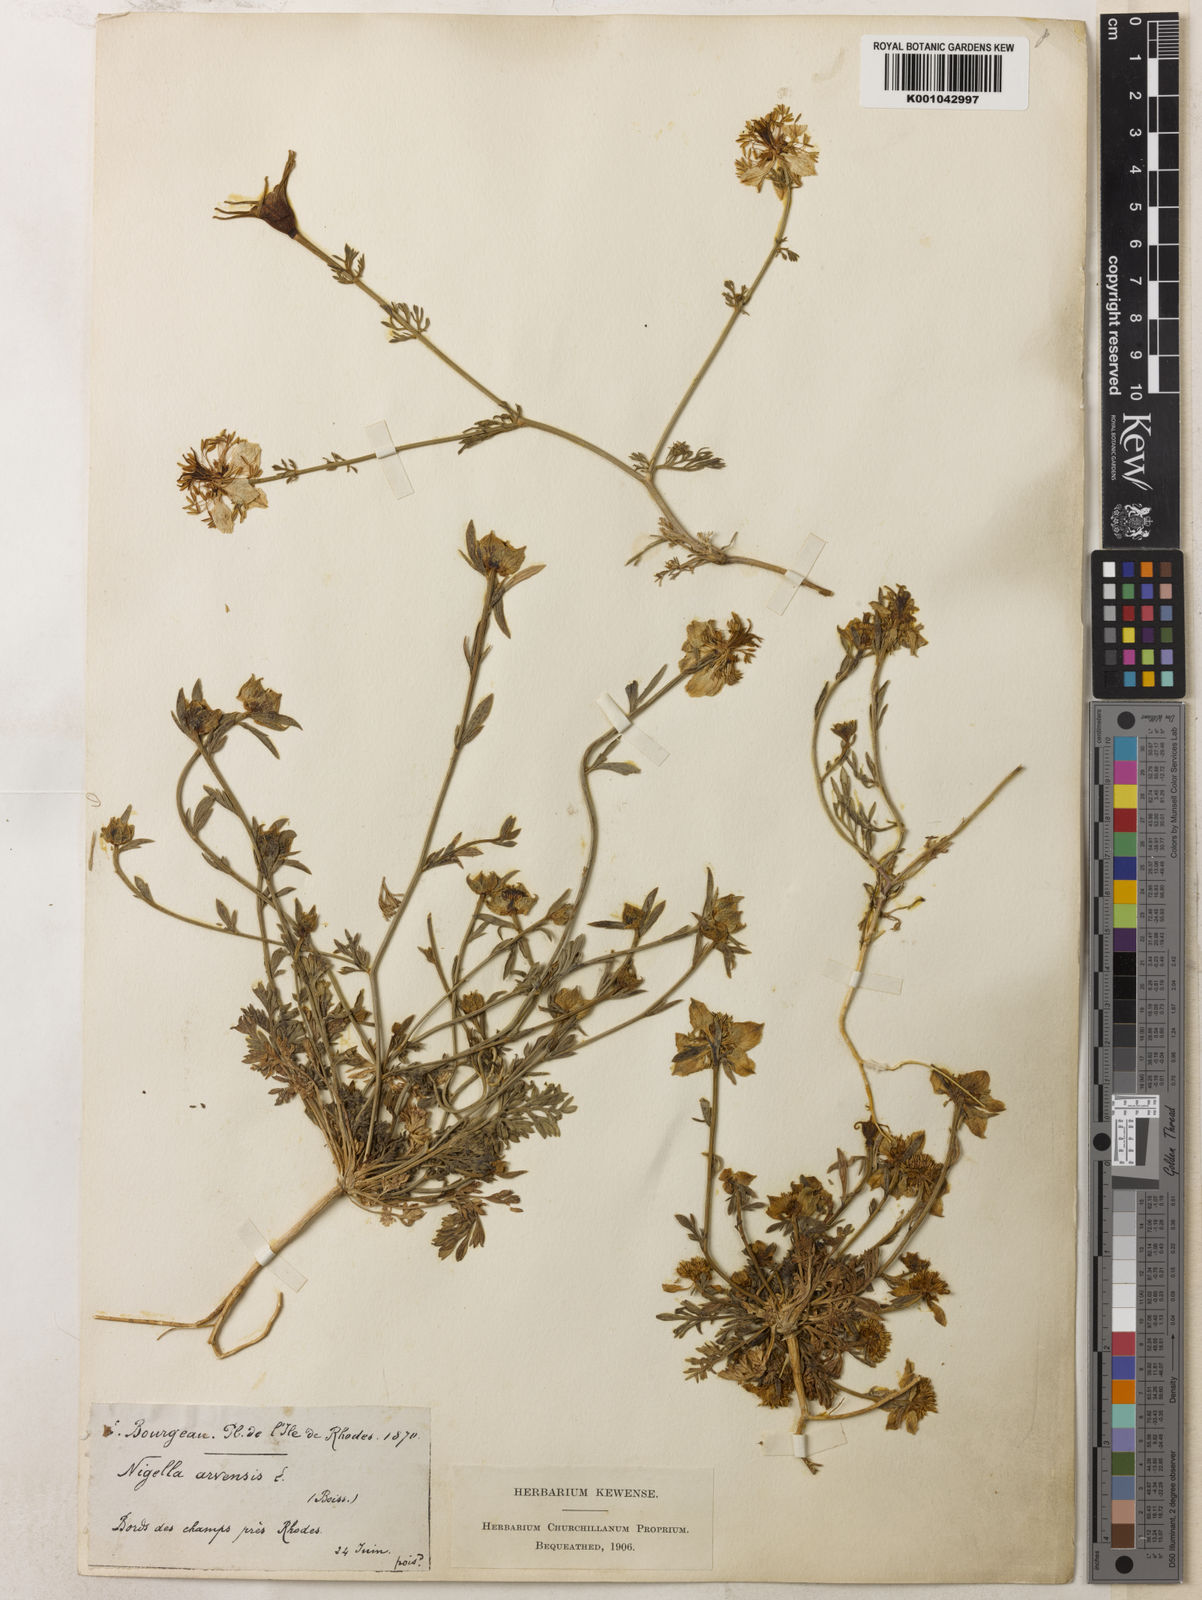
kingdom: Plantae
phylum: Tracheophyta
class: Magnoliopsida
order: Ranunculales
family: Ranunculaceae
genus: Nigella
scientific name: Nigella arvensis
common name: Wild fennel-flower
